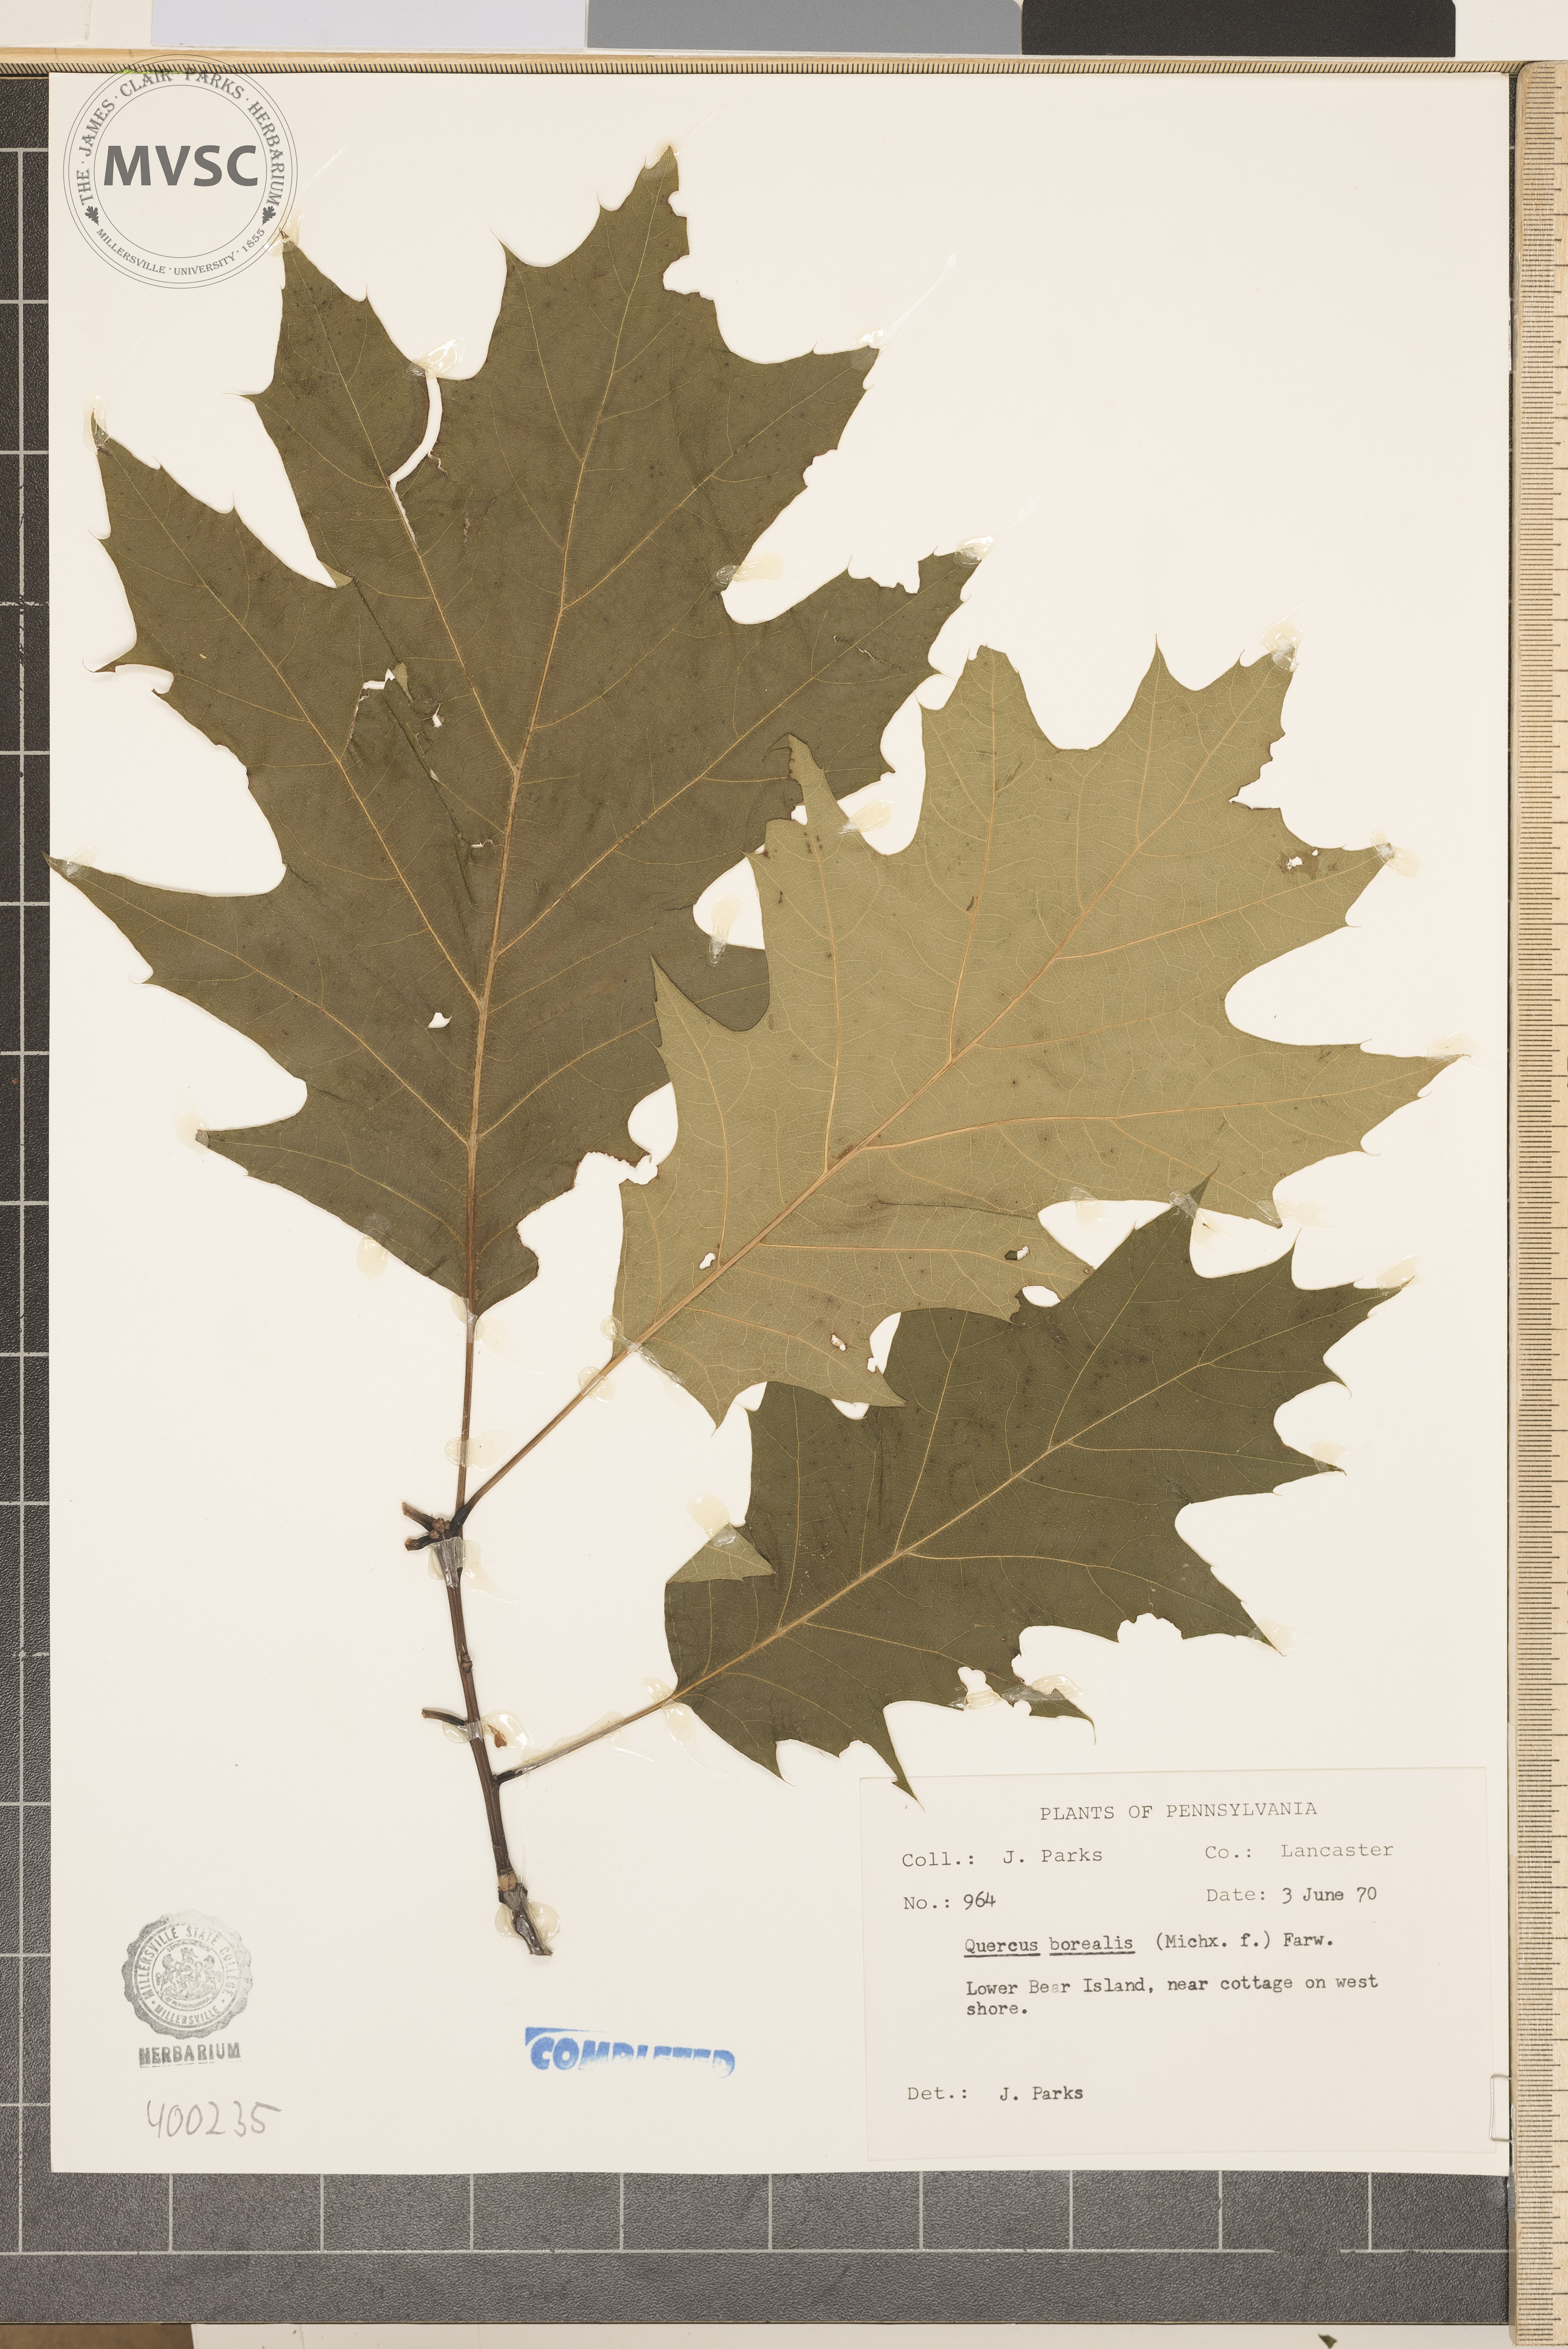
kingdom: Plantae
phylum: Tracheophyta
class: Magnoliopsida
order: Fagales
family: Fagaceae
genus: Quercus
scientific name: Quercus rubra
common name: red oak
